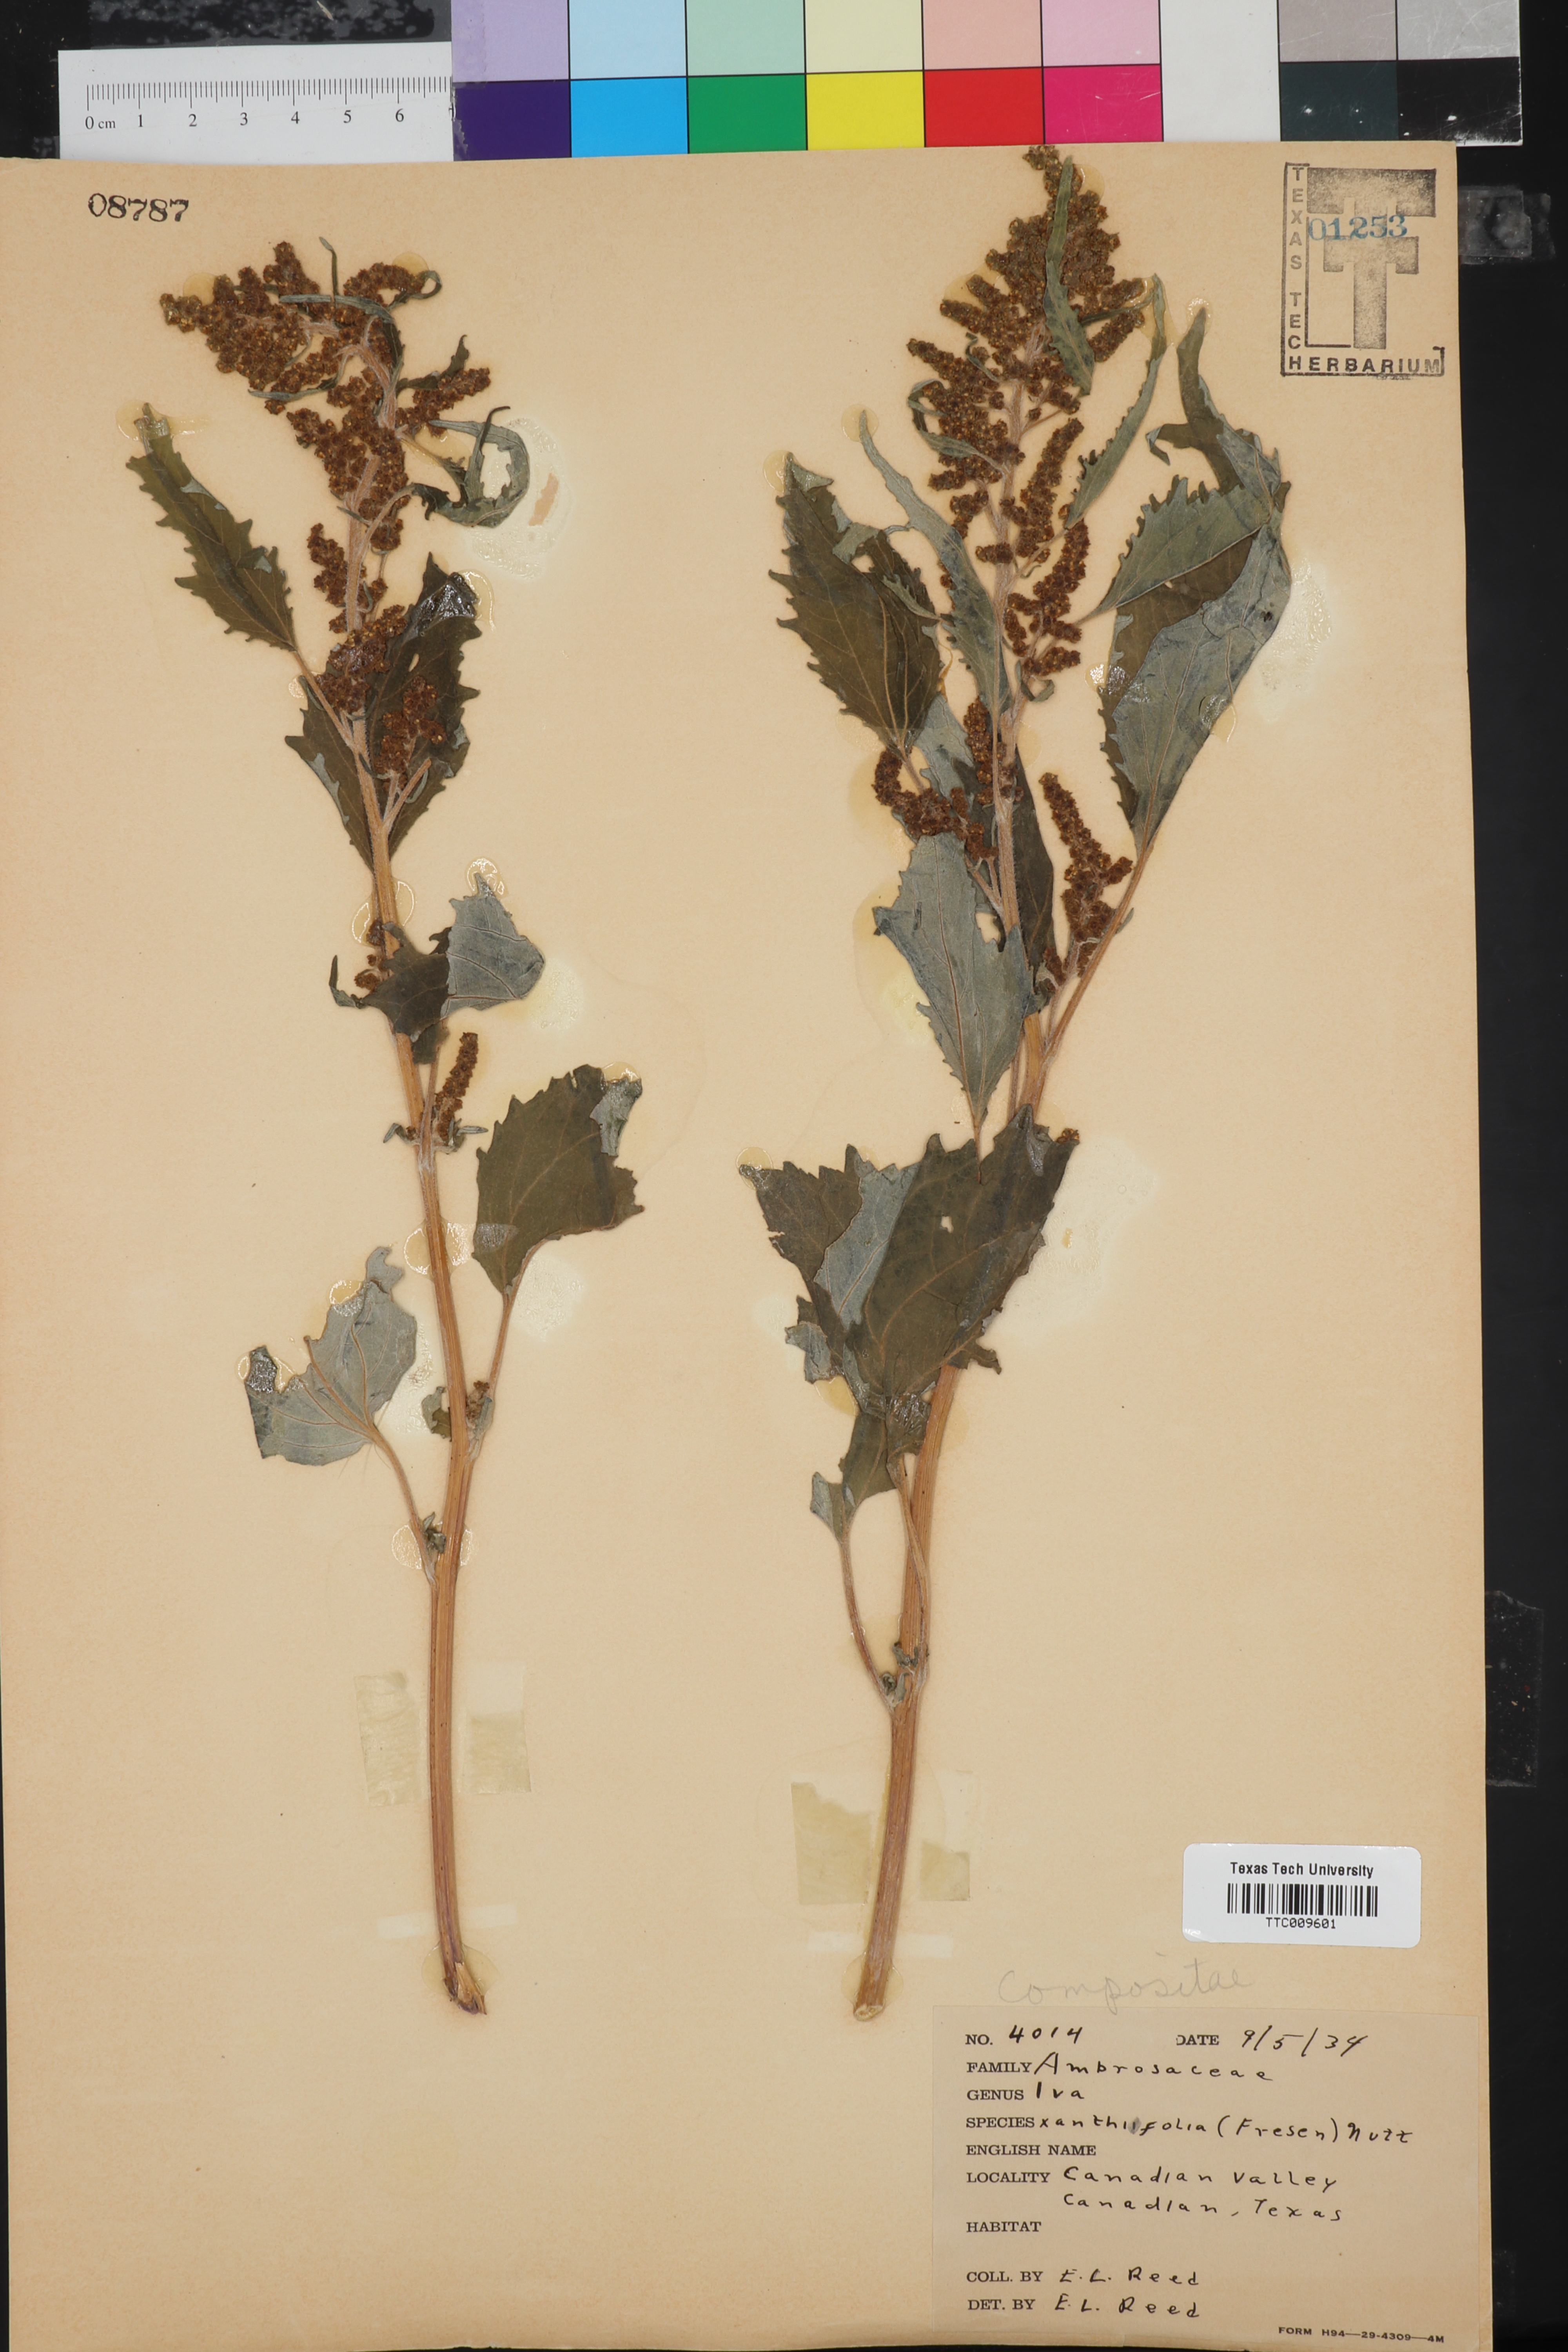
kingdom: Plantae
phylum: Tracheophyta
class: Magnoliopsida
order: Asterales
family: Asteraceae
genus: Cyclachaena
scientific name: Cyclachaena xanthiifolia
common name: Giant sumpweed
